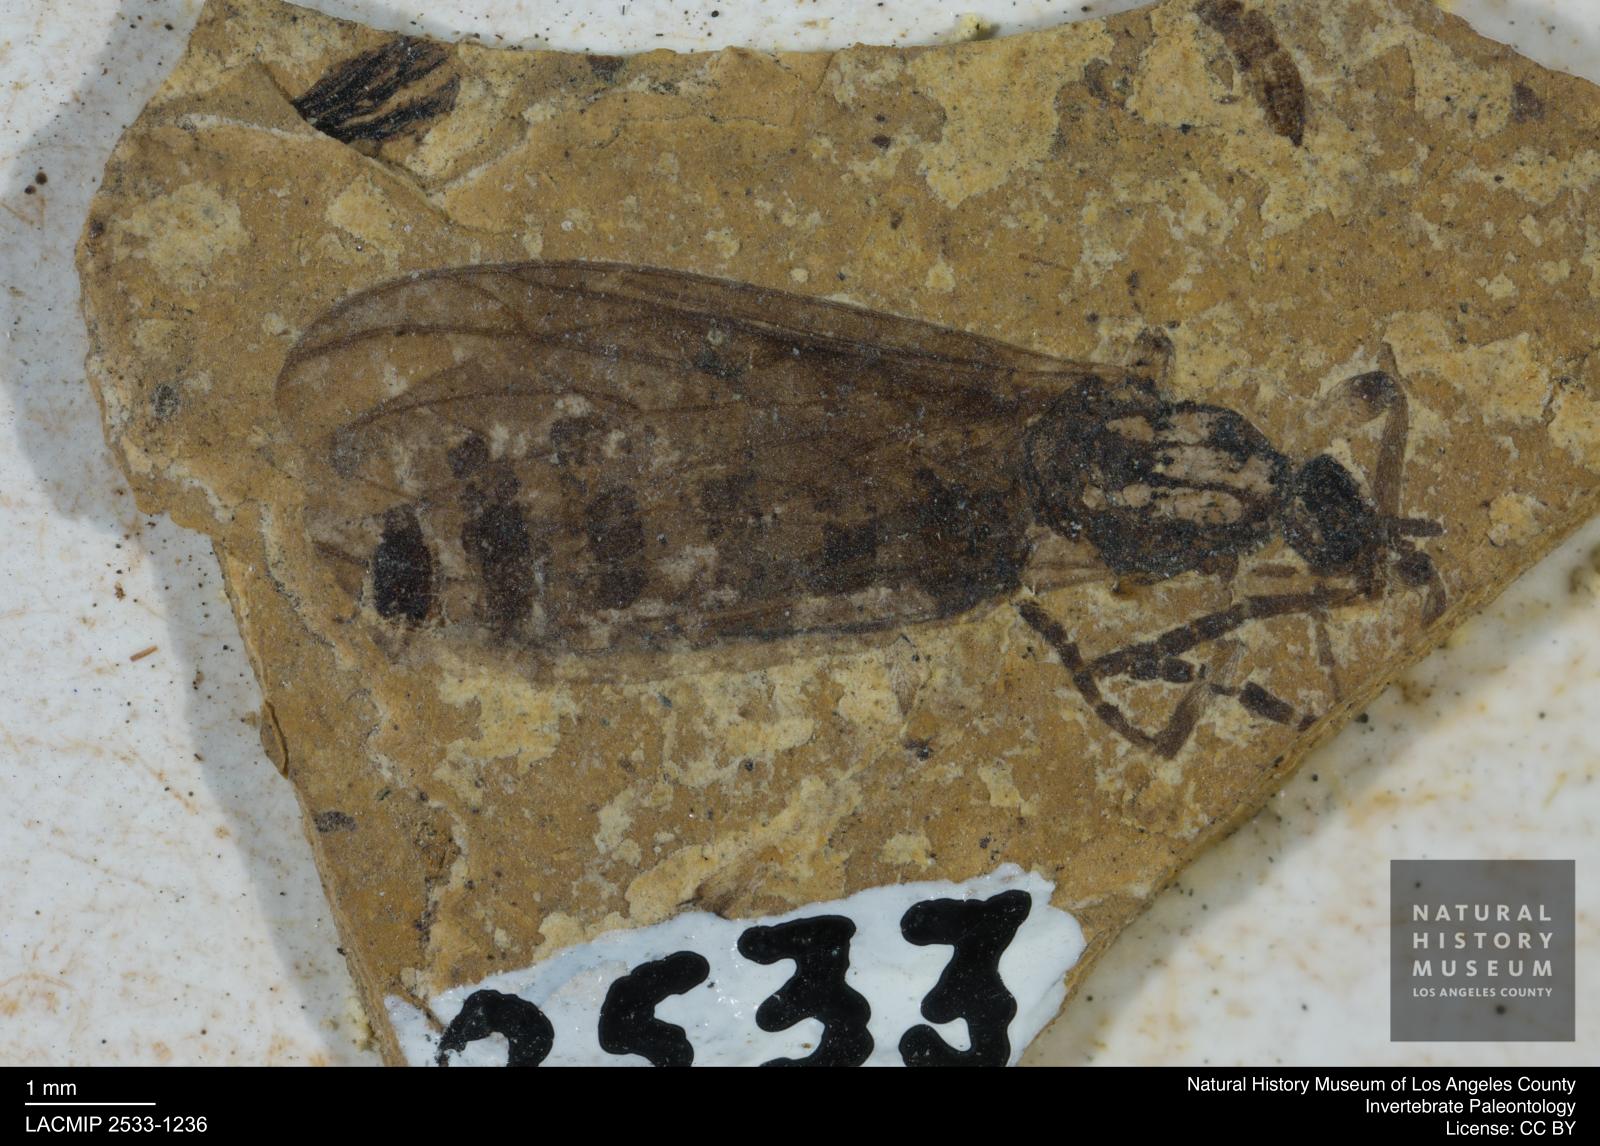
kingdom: Animalia
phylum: Arthropoda
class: Insecta
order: Diptera
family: Bibionidae
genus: Plecia
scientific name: Plecia pinguis
